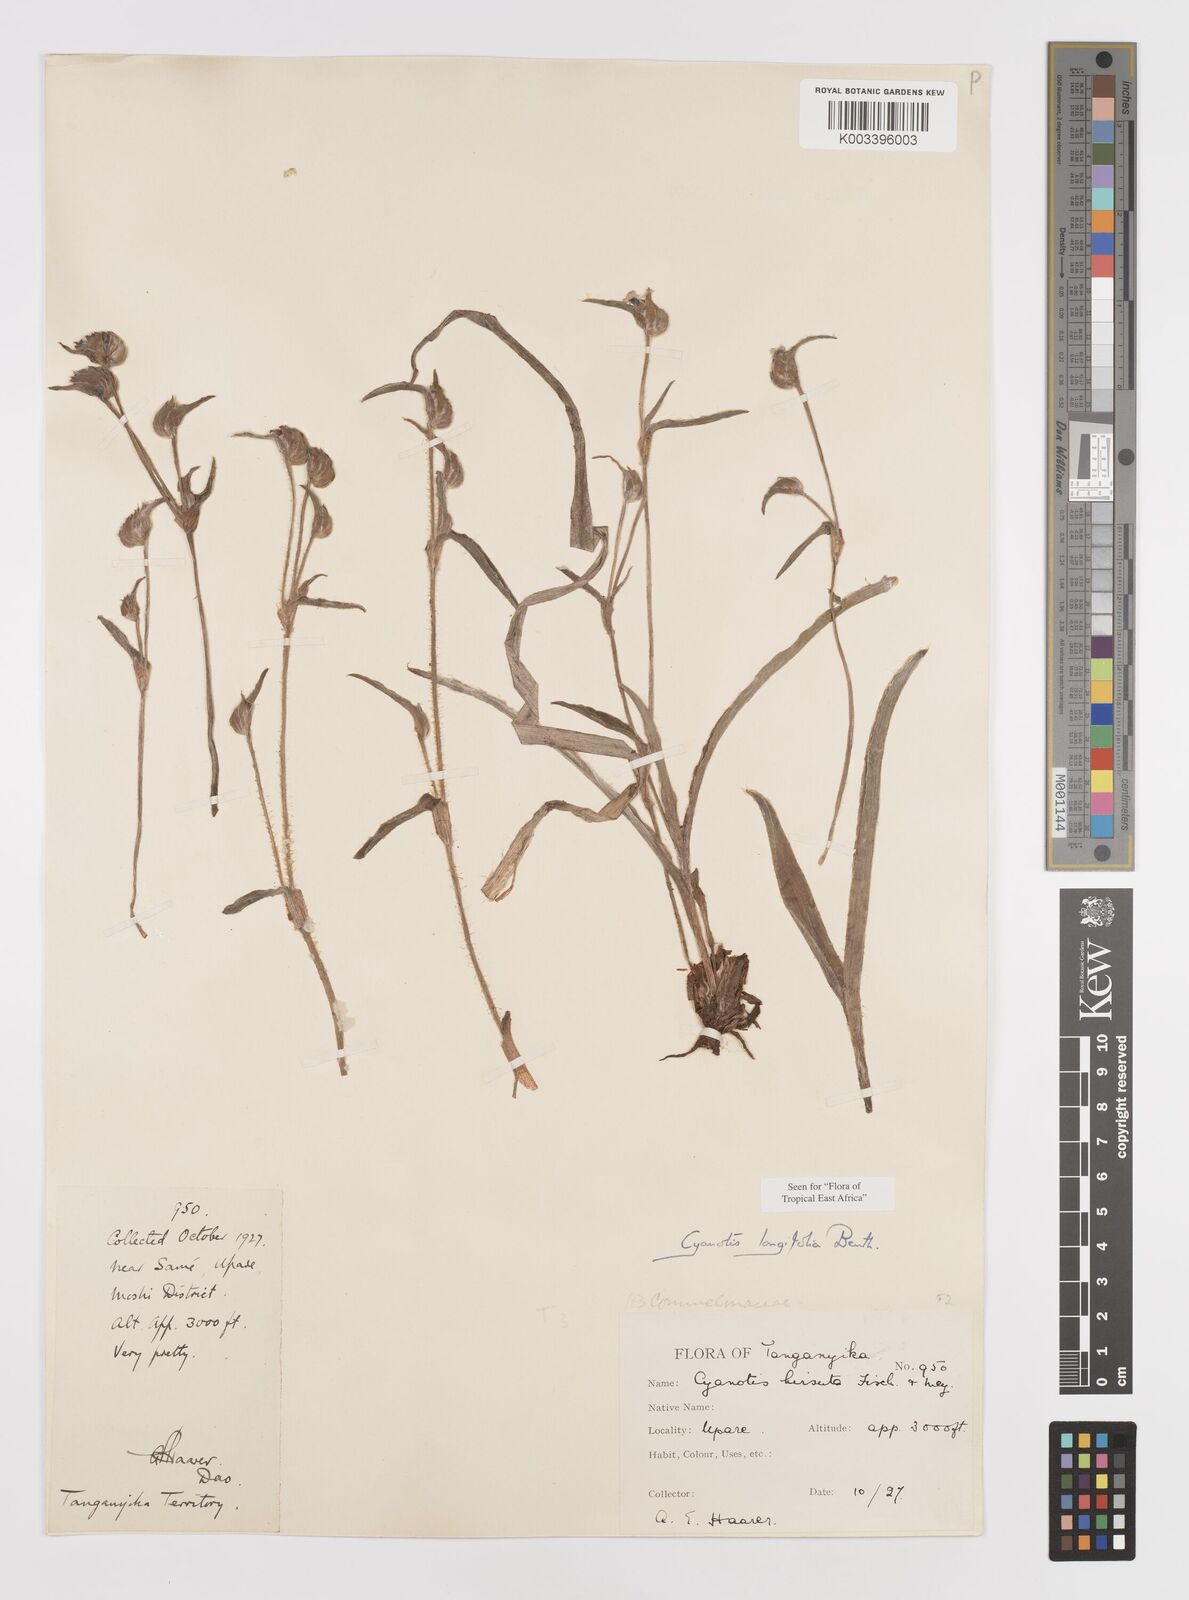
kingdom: Plantae
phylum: Tracheophyta
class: Liliopsida
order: Commelinales
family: Commelinaceae
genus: Cyanotis
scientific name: Cyanotis longifolia
